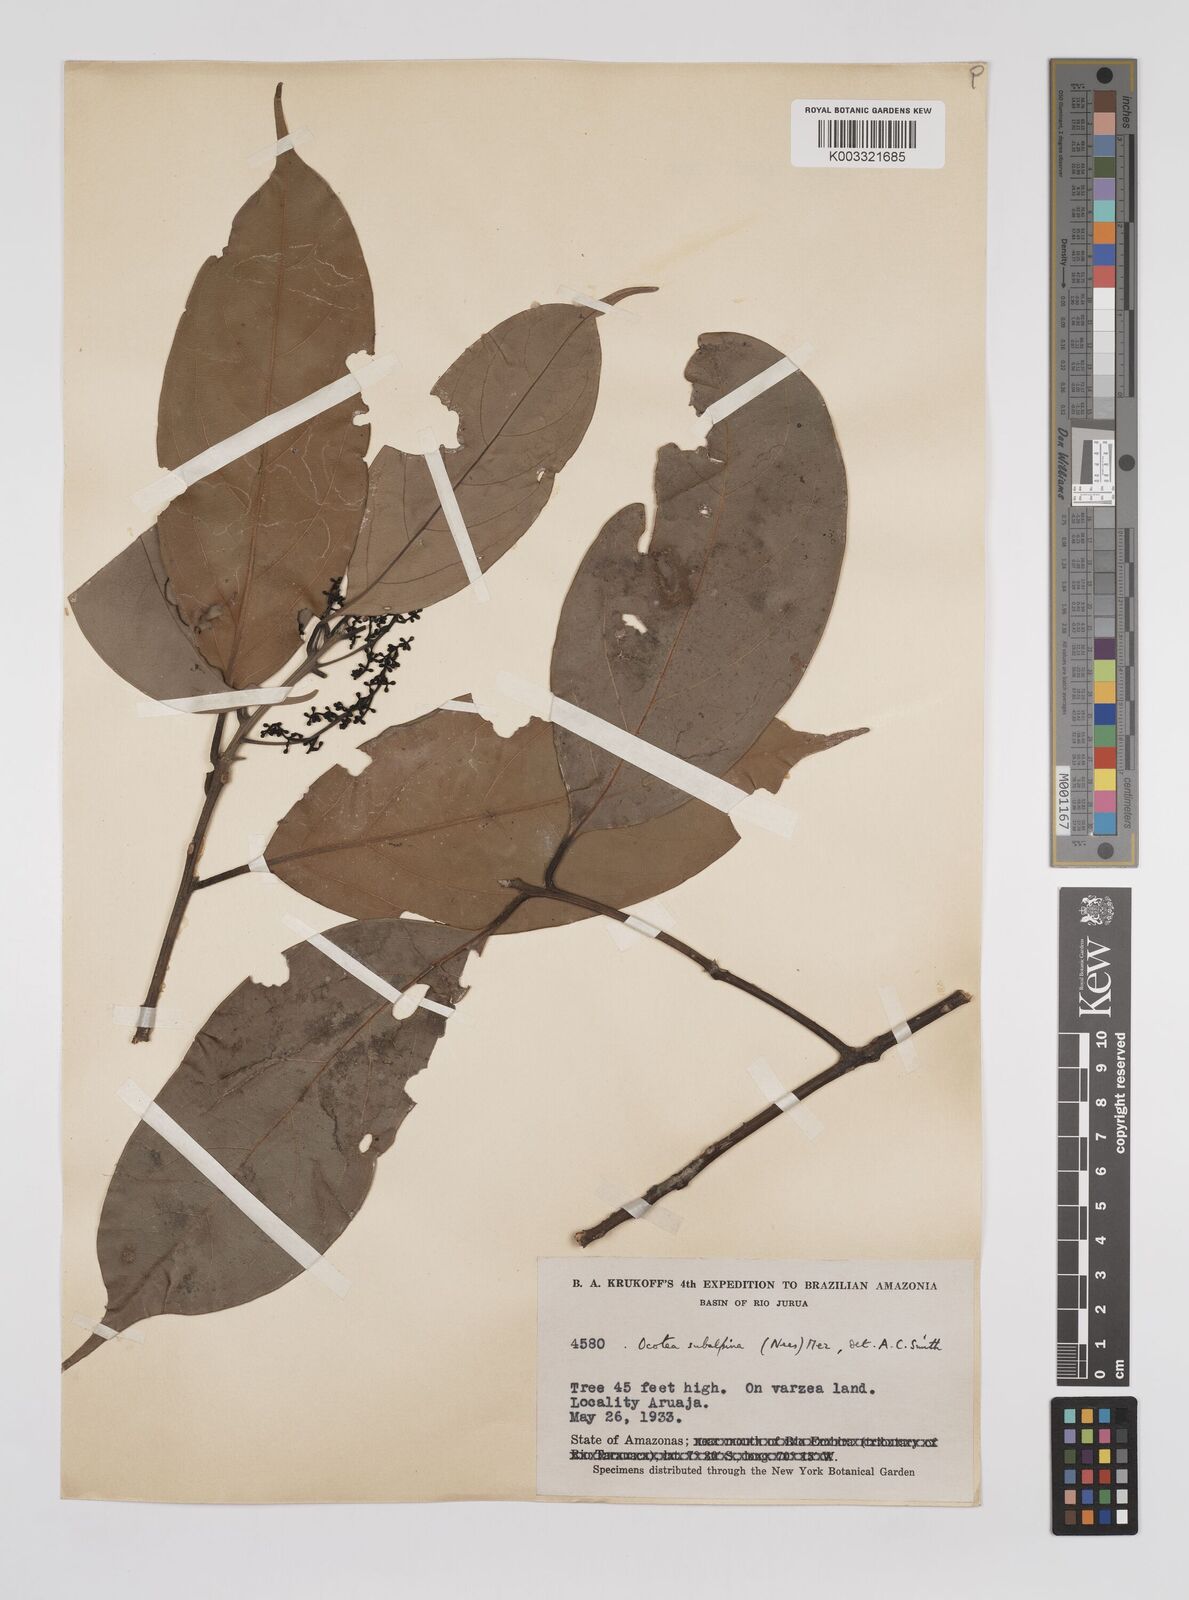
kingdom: Plantae
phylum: Tracheophyta
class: Magnoliopsida
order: Laurales
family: Lauraceae
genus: Ocotea
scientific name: Ocotea leptobotra
